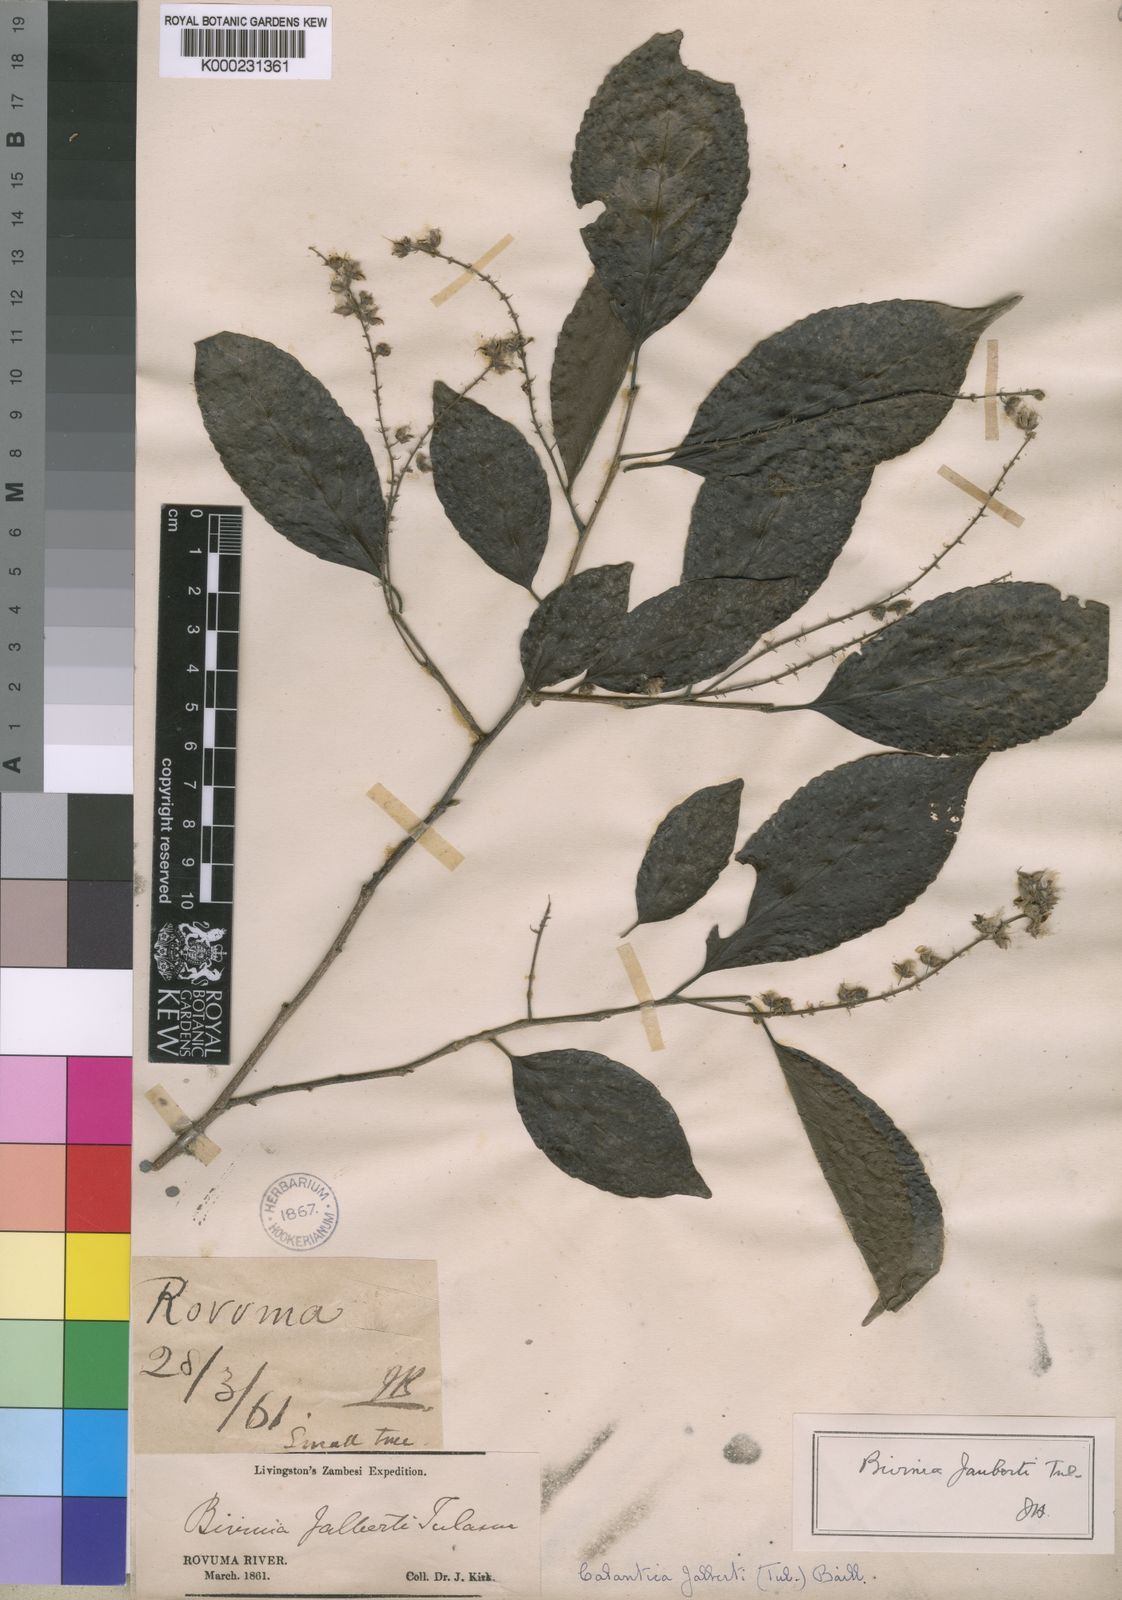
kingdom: Plantae
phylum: Tracheophyta
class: Magnoliopsida
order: Malpighiales
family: Salicaceae
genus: Bivinia
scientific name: Bivinia jalbertii
